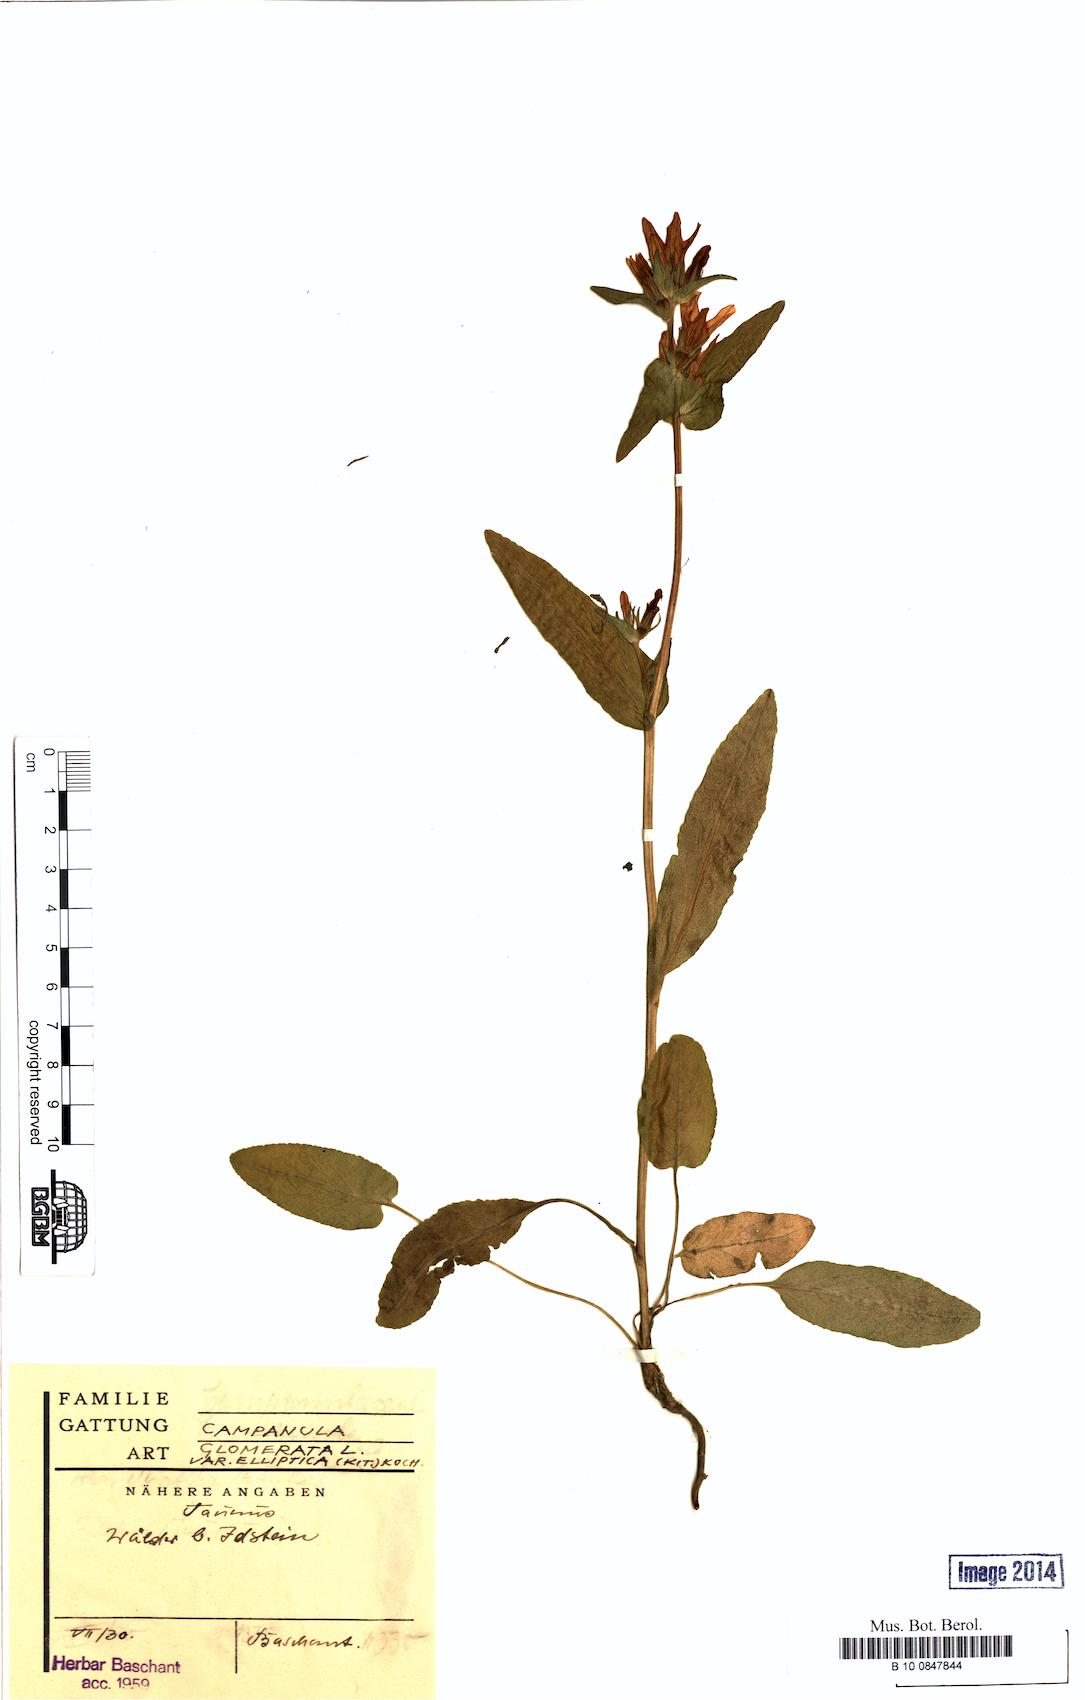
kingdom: Plantae
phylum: Tracheophyta
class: Magnoliopsida
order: Asterales
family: Campanulaceae
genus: Campanula
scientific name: Campanula glomerata
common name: Clustered bellflower
